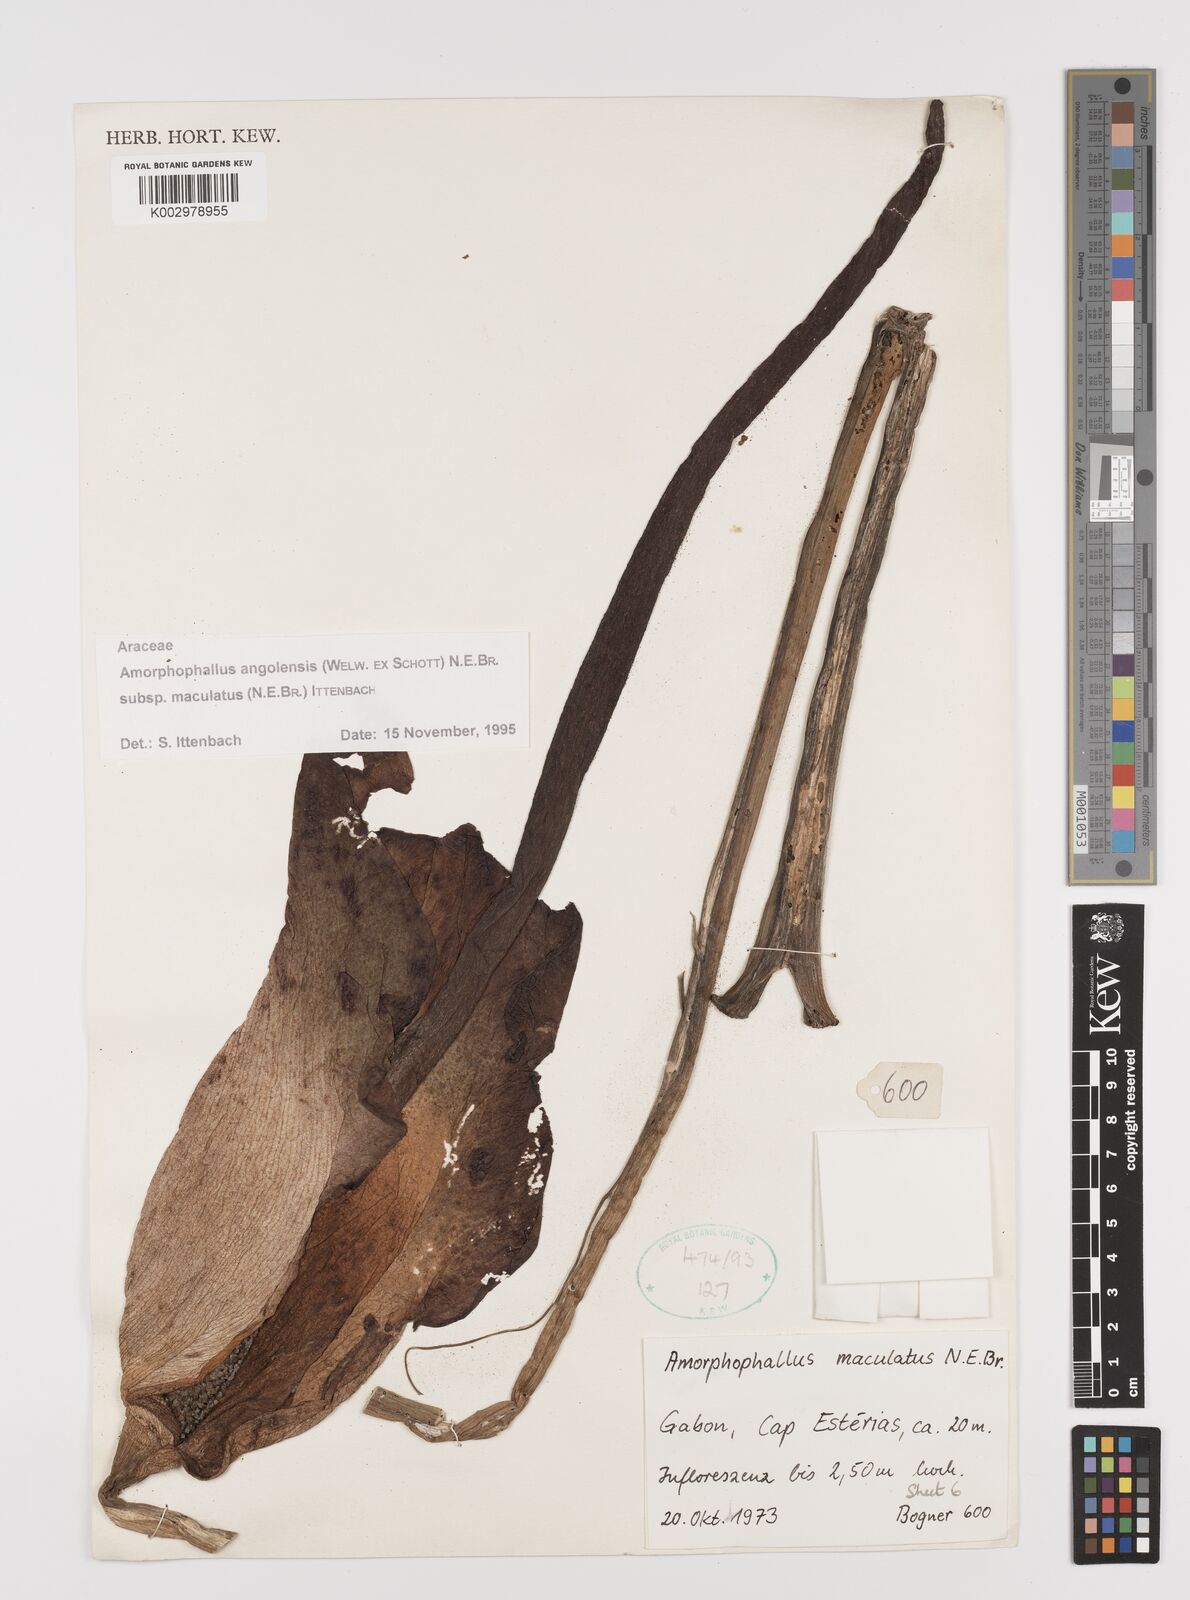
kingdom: Plantae
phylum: Tracheophyta
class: Liliopsida
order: Alismatales
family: Araceae
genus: Amorphophallus
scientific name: Amorphophallus angolensis
